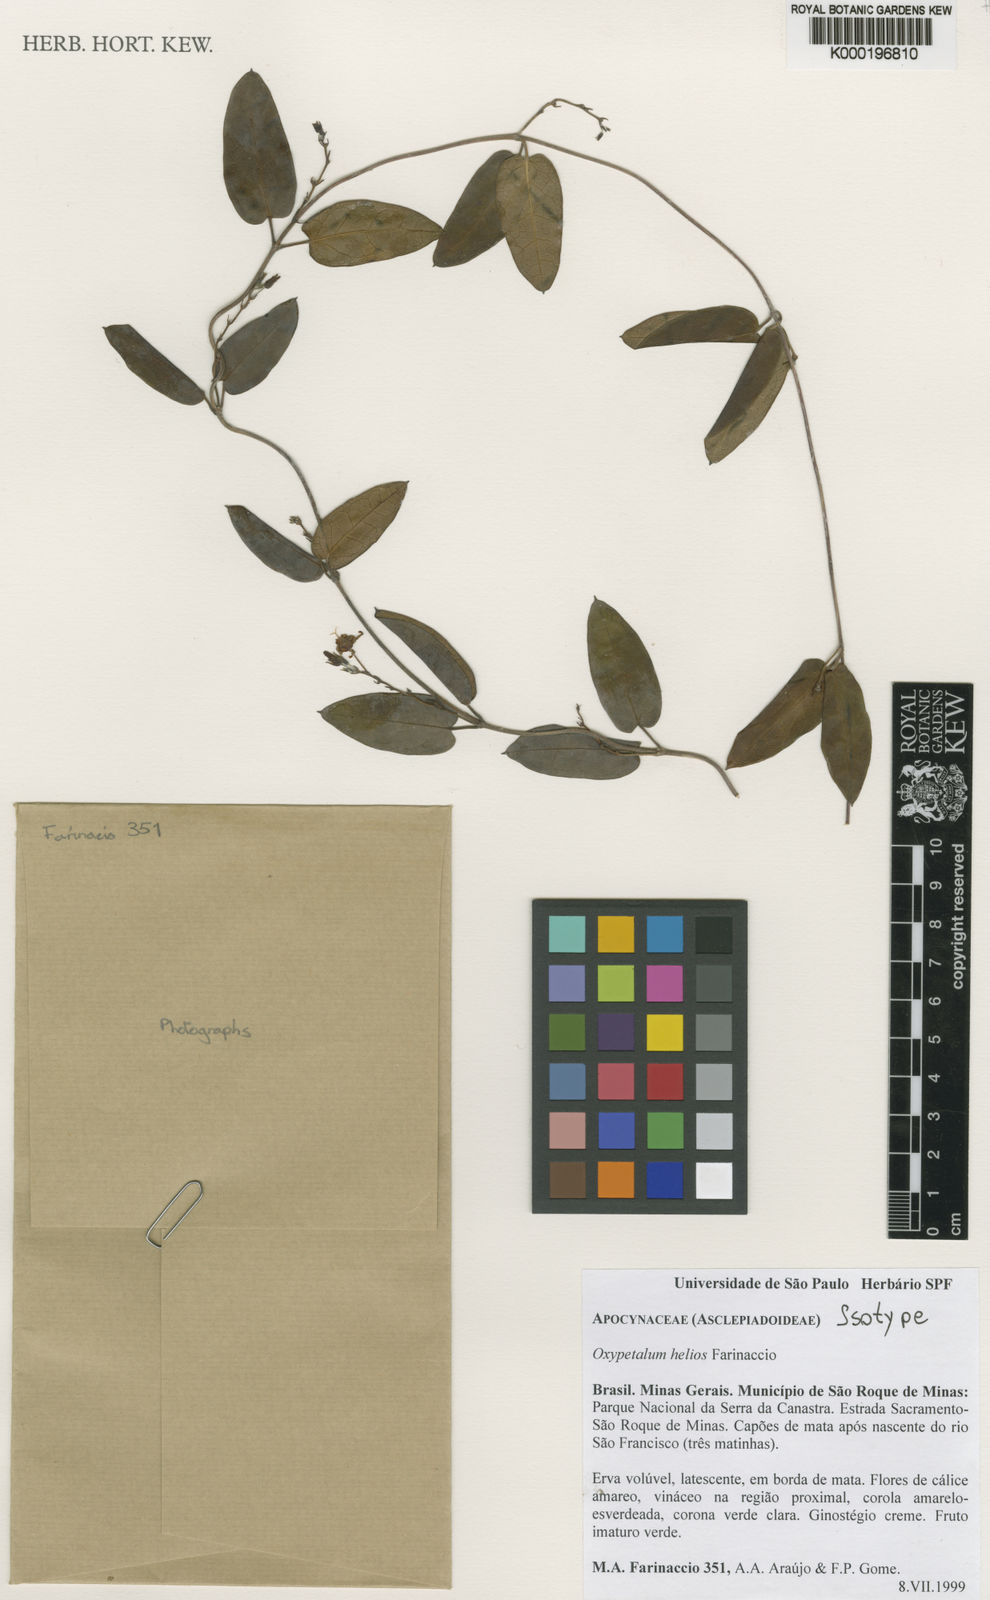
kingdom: Plantae
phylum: Tracheophyta
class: Magnoliopsida
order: Gentianales
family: Apocynaceae
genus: Oxypetalum
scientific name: Oxypetalum helios
